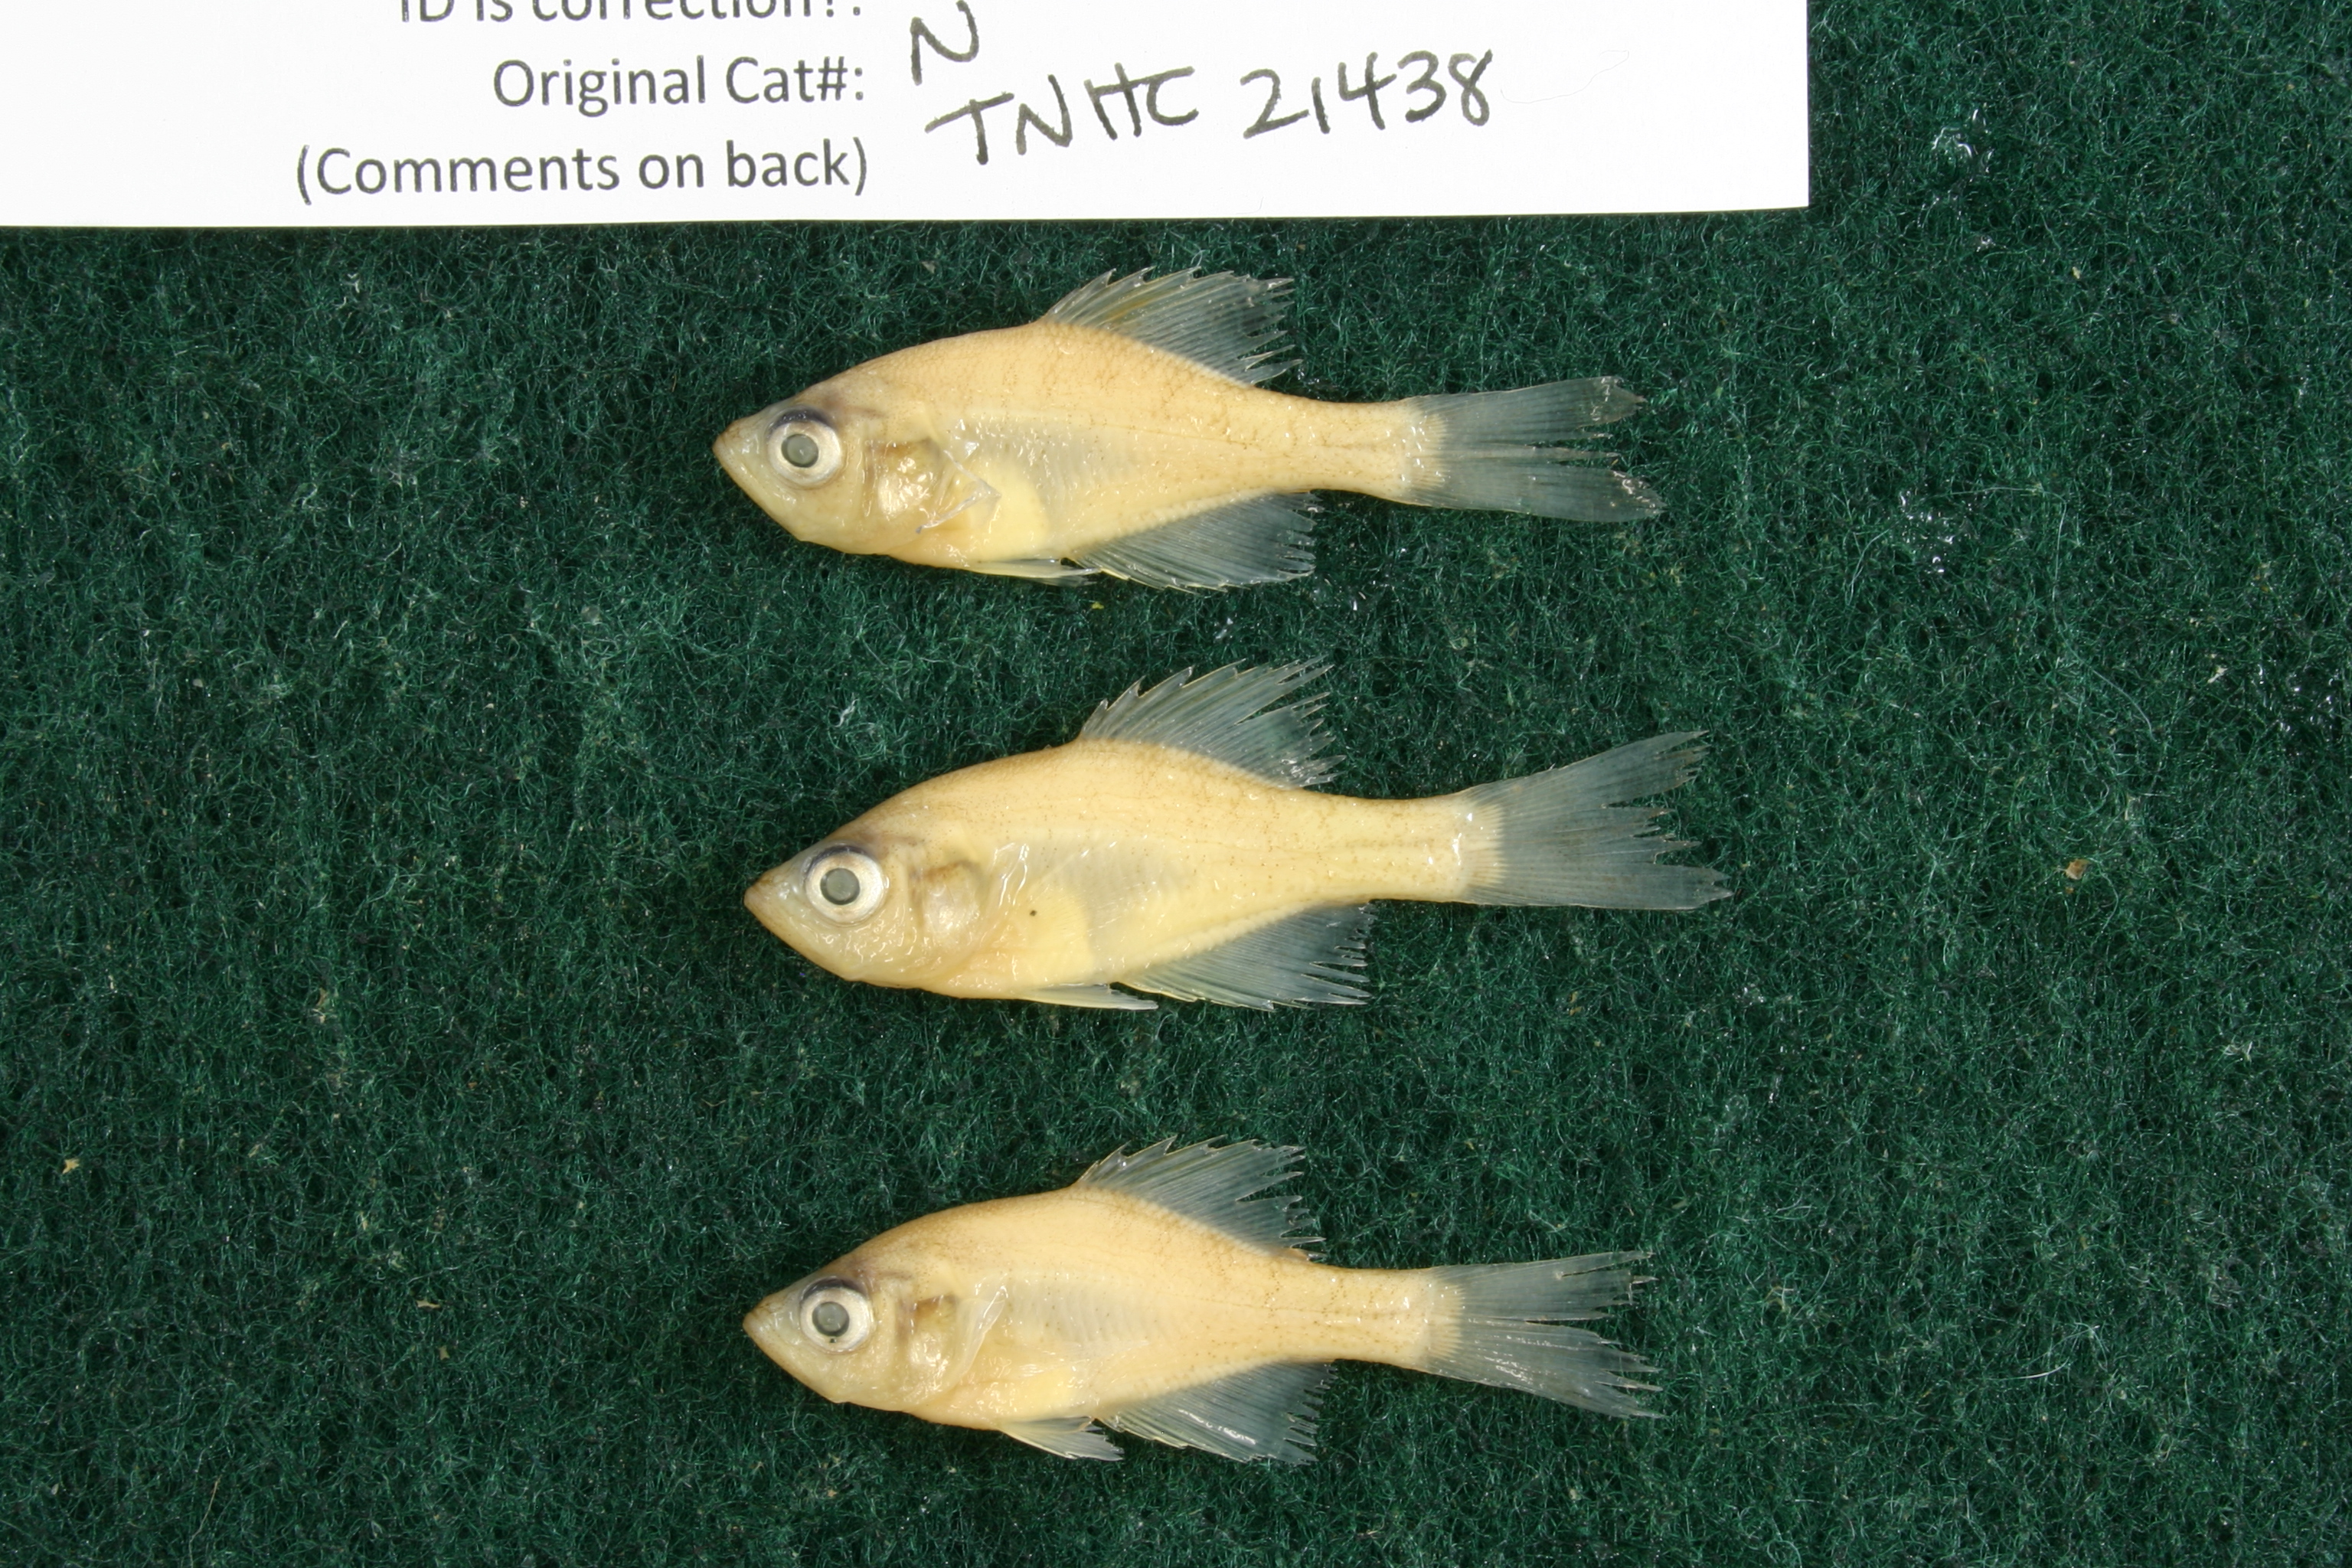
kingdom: Animalia
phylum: Chordata
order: Perciformes
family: Centrarchidae
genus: Pomoxis
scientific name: Pomoxis annularis
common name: White crappie
